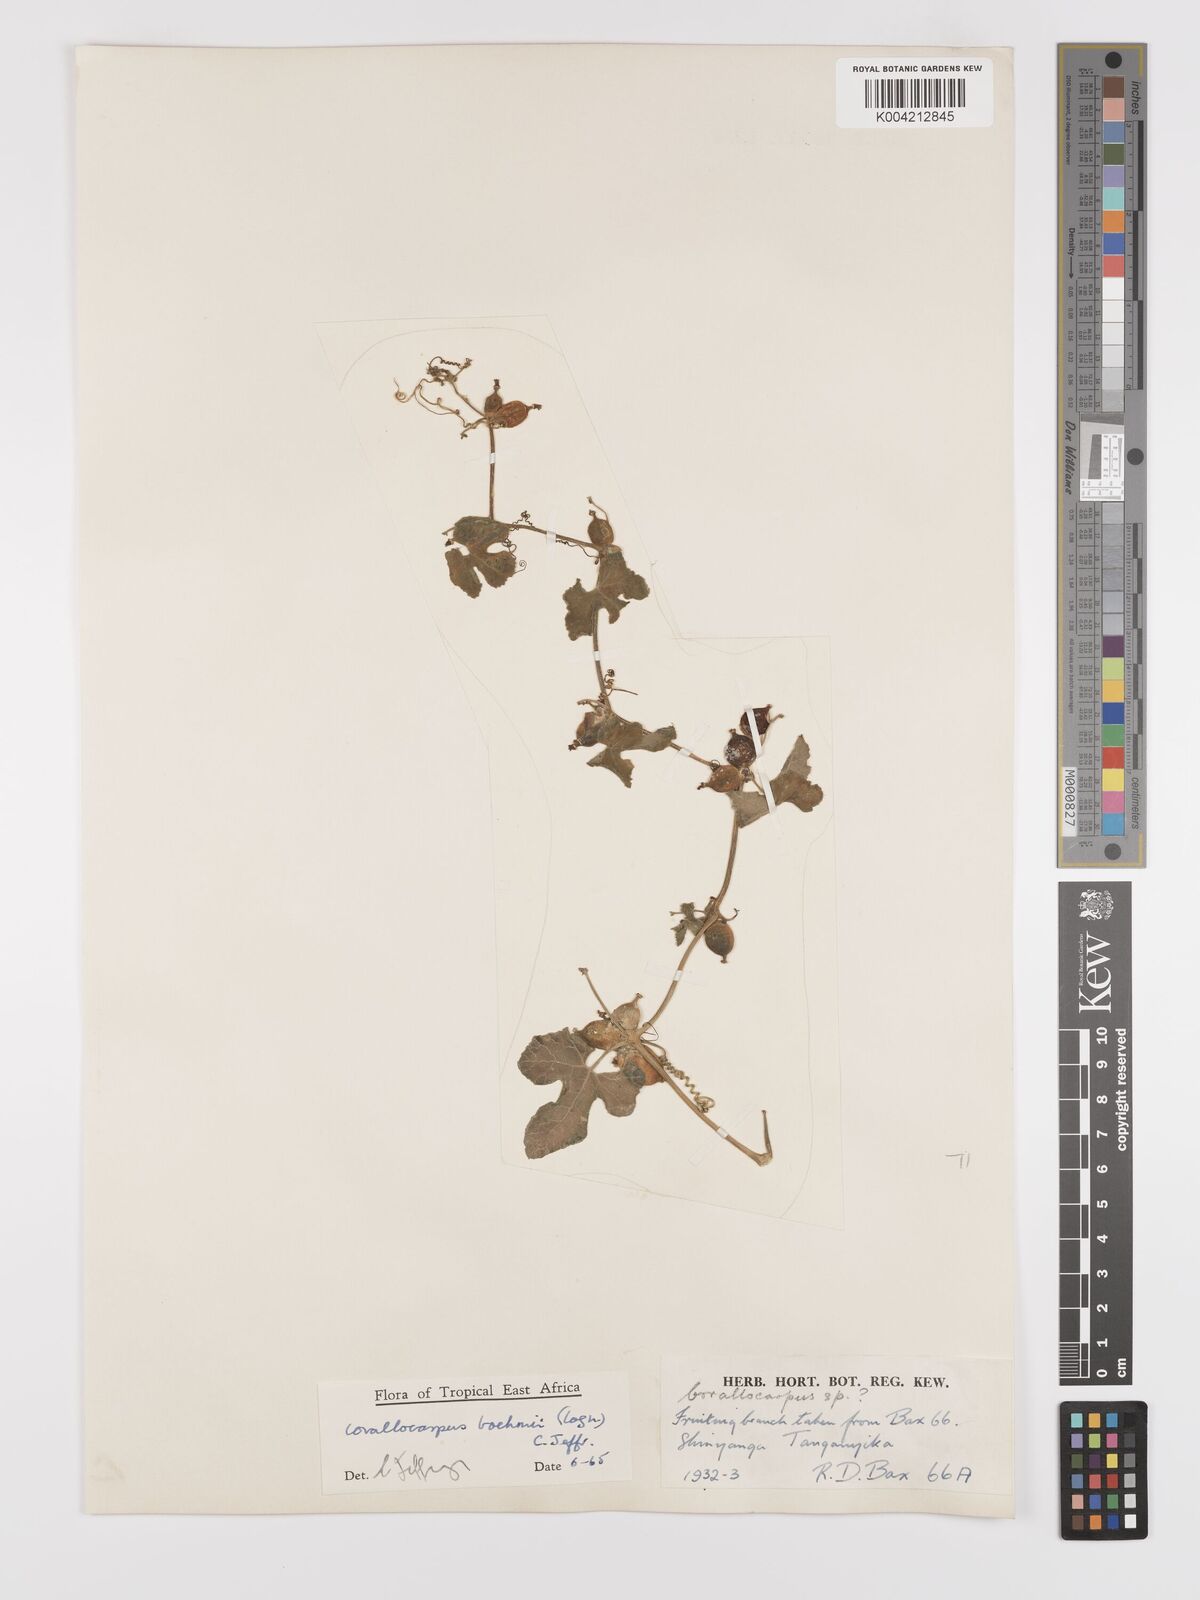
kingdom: Plantae
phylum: Tracheophyta
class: Magnoliopsida
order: Cucurbitales
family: Cucurbitaceae
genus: Corallocarpus
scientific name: Corallocarpus boehmii
